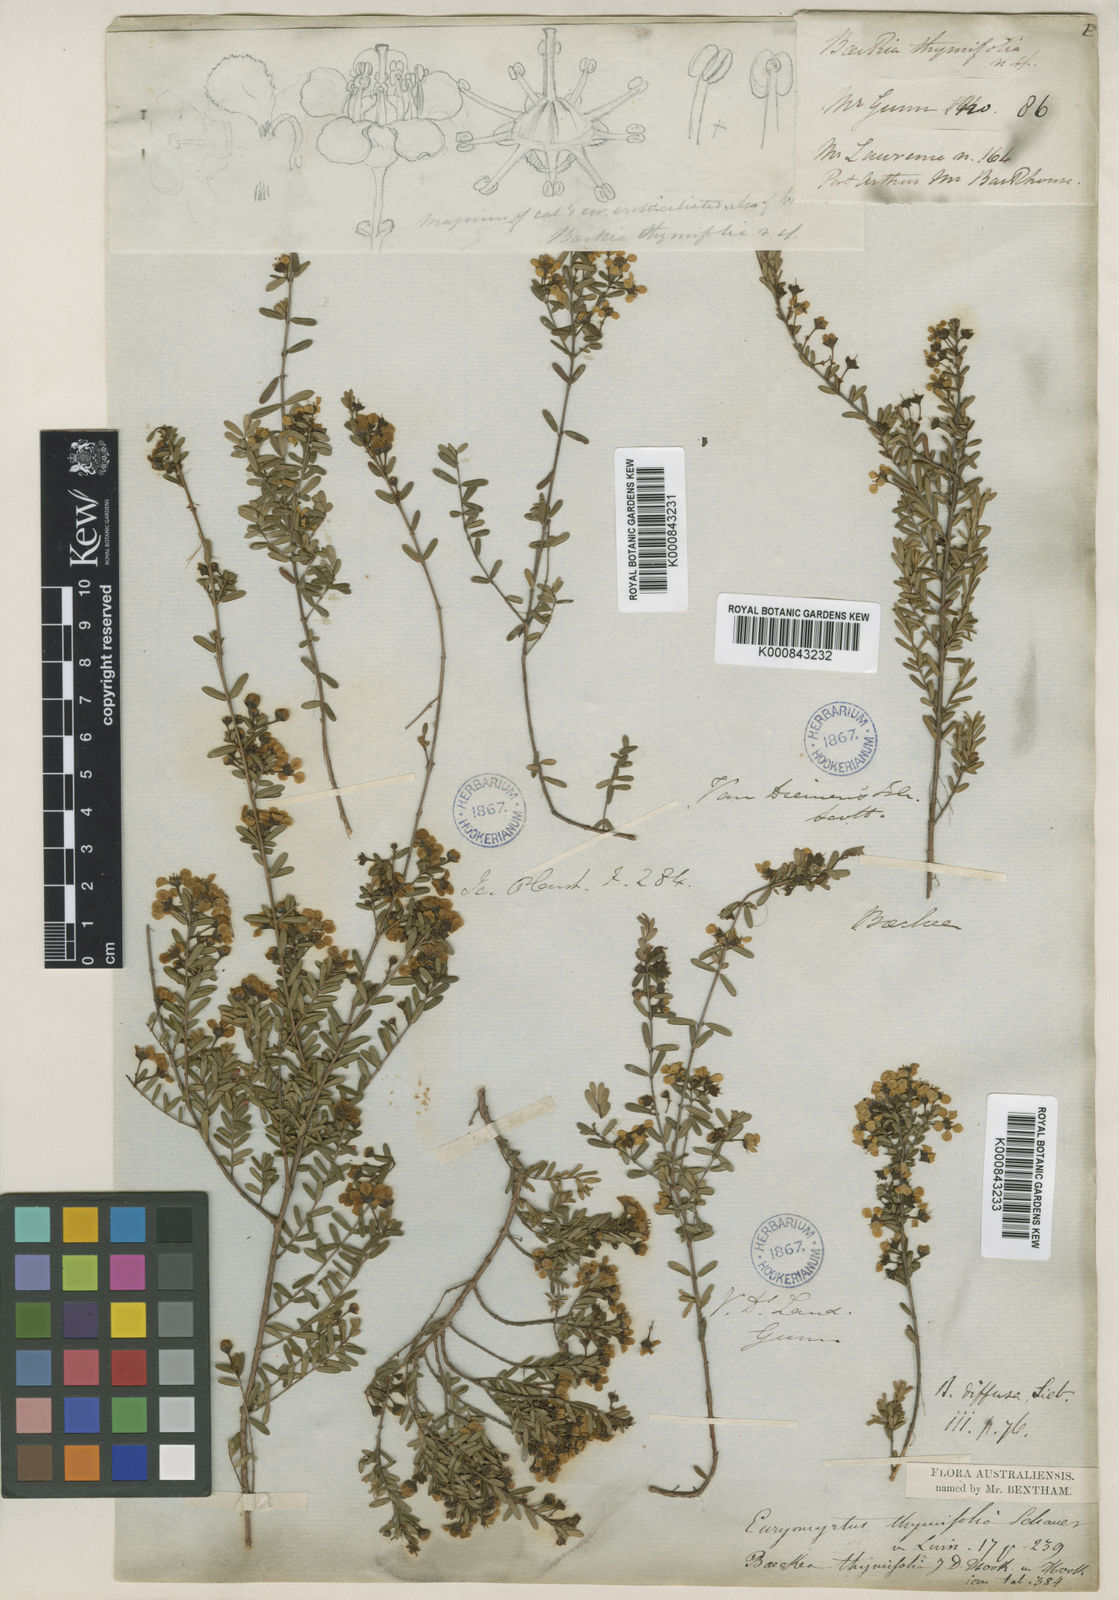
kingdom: Plantae
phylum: Tracheophyta
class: Magnoliopsida
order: Myrtales
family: Myrtaceae
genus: Euryomyrtus
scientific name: Euryomyrtus ramosissima
